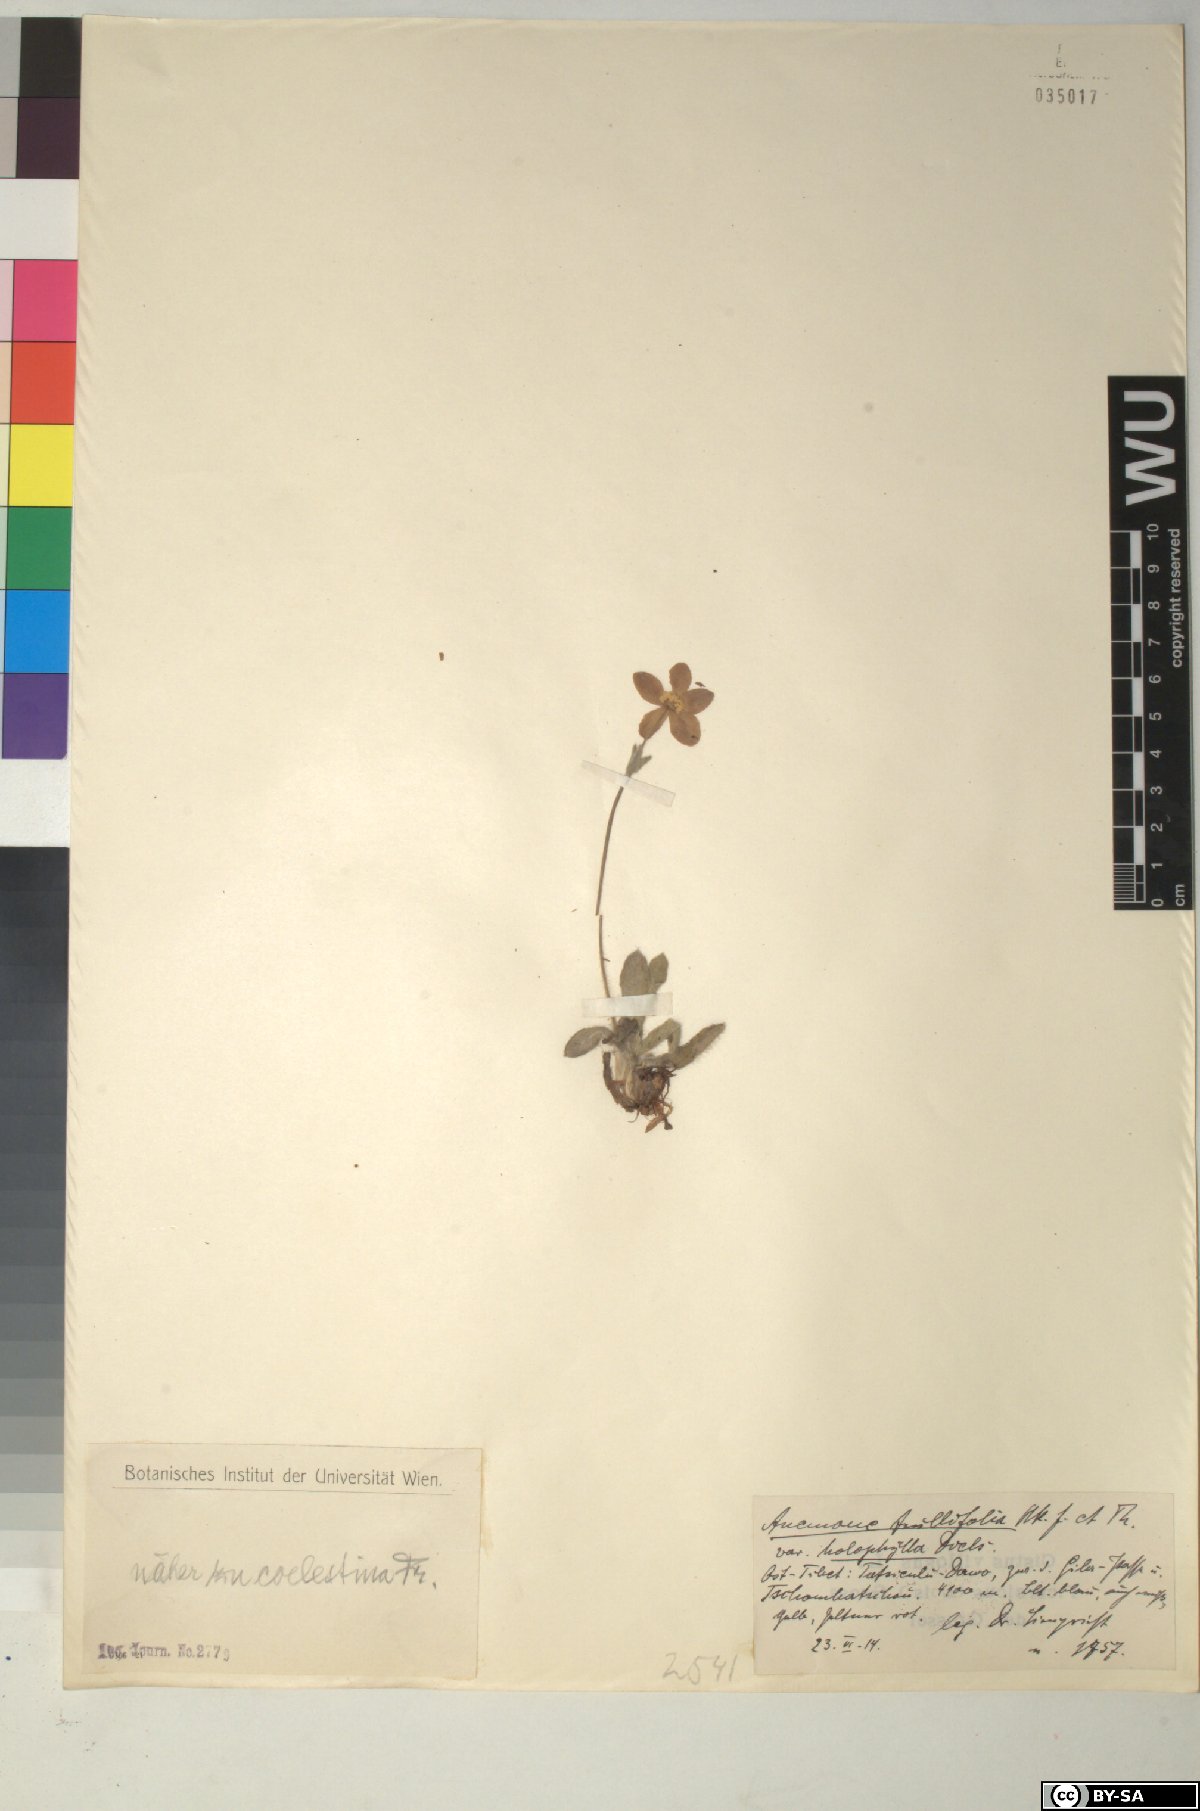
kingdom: Plantae
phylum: Tracheophyta
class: Magnoliopsida
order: Ranunculales
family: Ranunculaceae
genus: Anemonastrum
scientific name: Anemonastrum coelestinum
